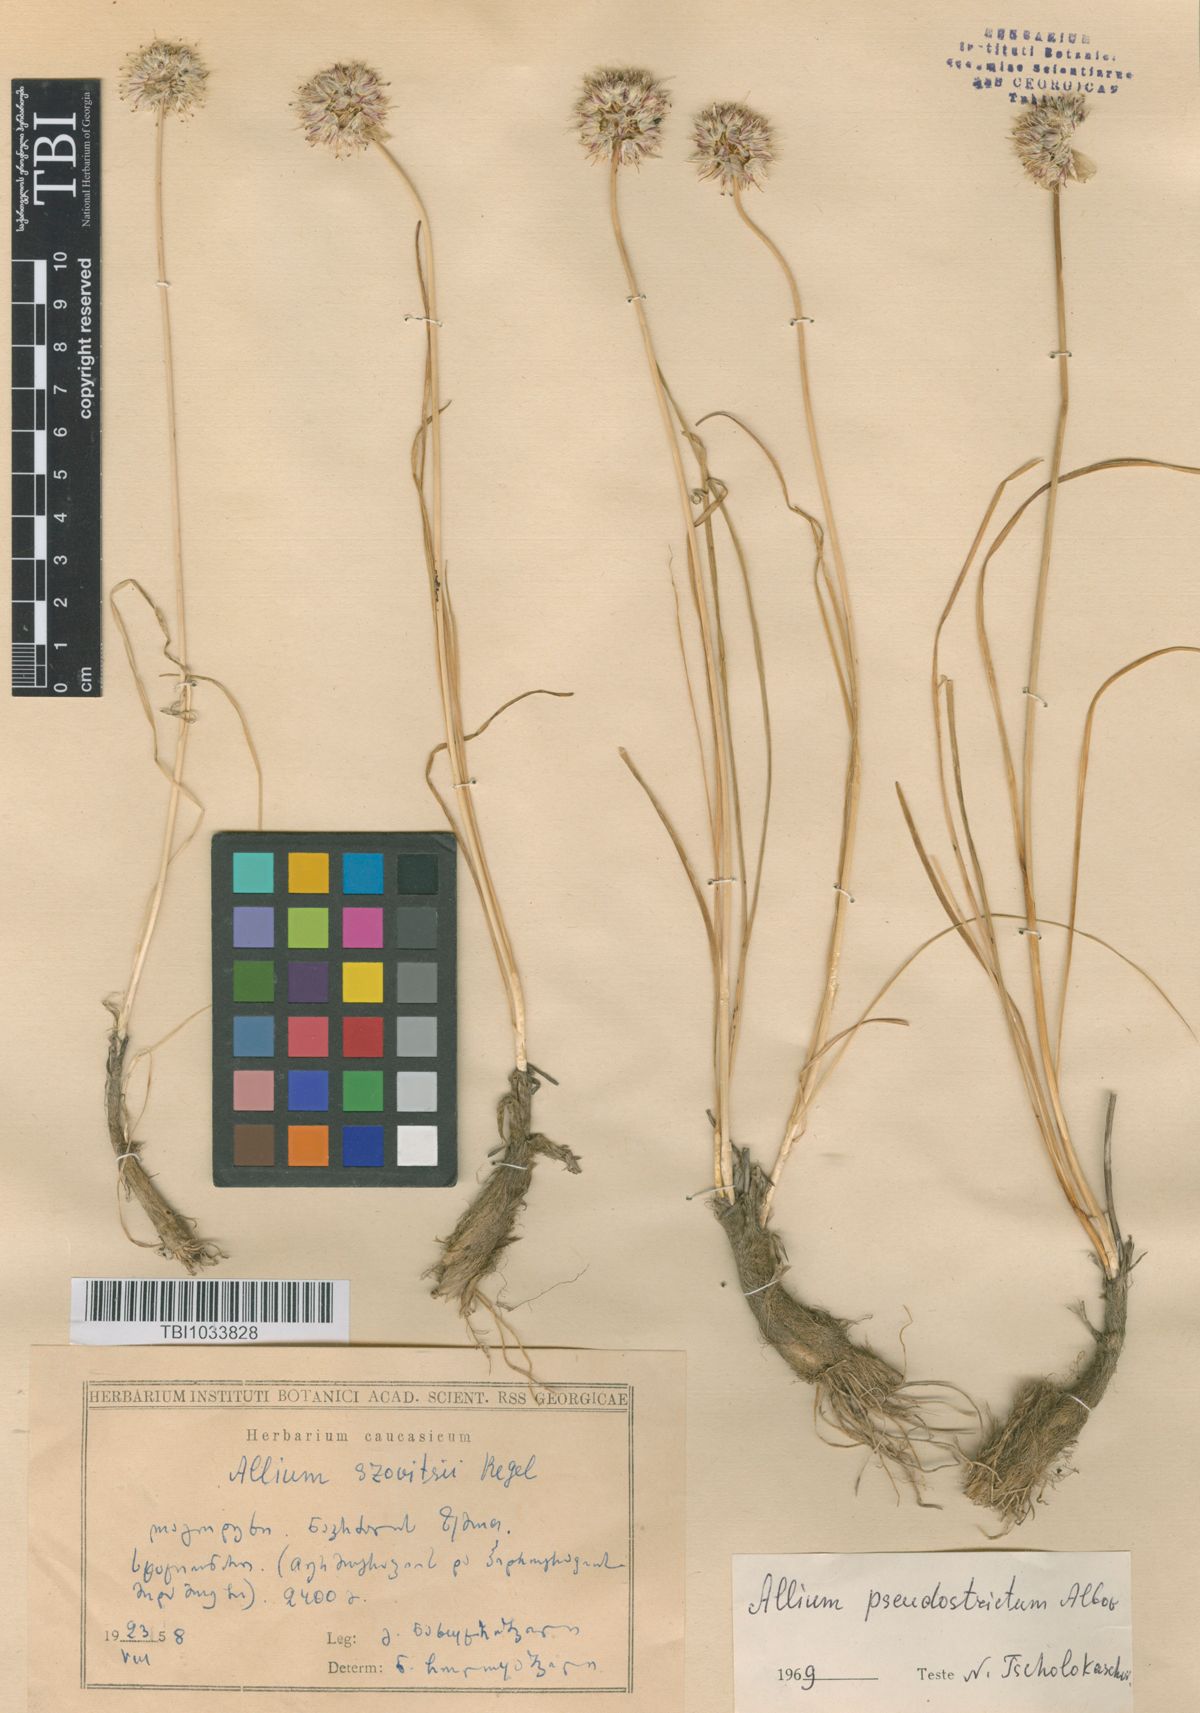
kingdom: Plantae
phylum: Tracheophyta
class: Liliopsida
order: Asparagales
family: Amaryllidaceae
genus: Allium
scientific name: Allium pseudostrictum
